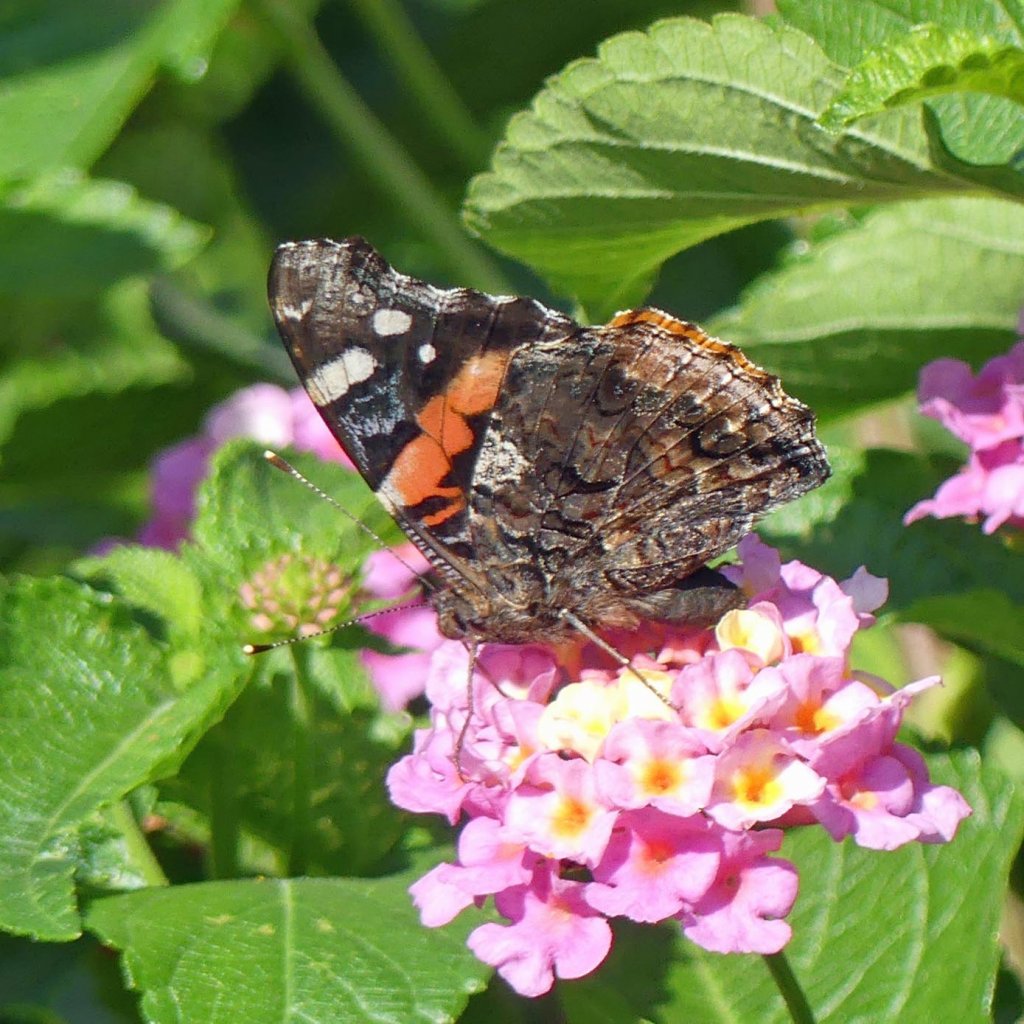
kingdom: Animalia
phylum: Arthropoda
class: Insecta
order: Lepidoptera
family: Nymphalidae
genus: Vanessa
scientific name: Vanessa atalanta
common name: Red Admiral
